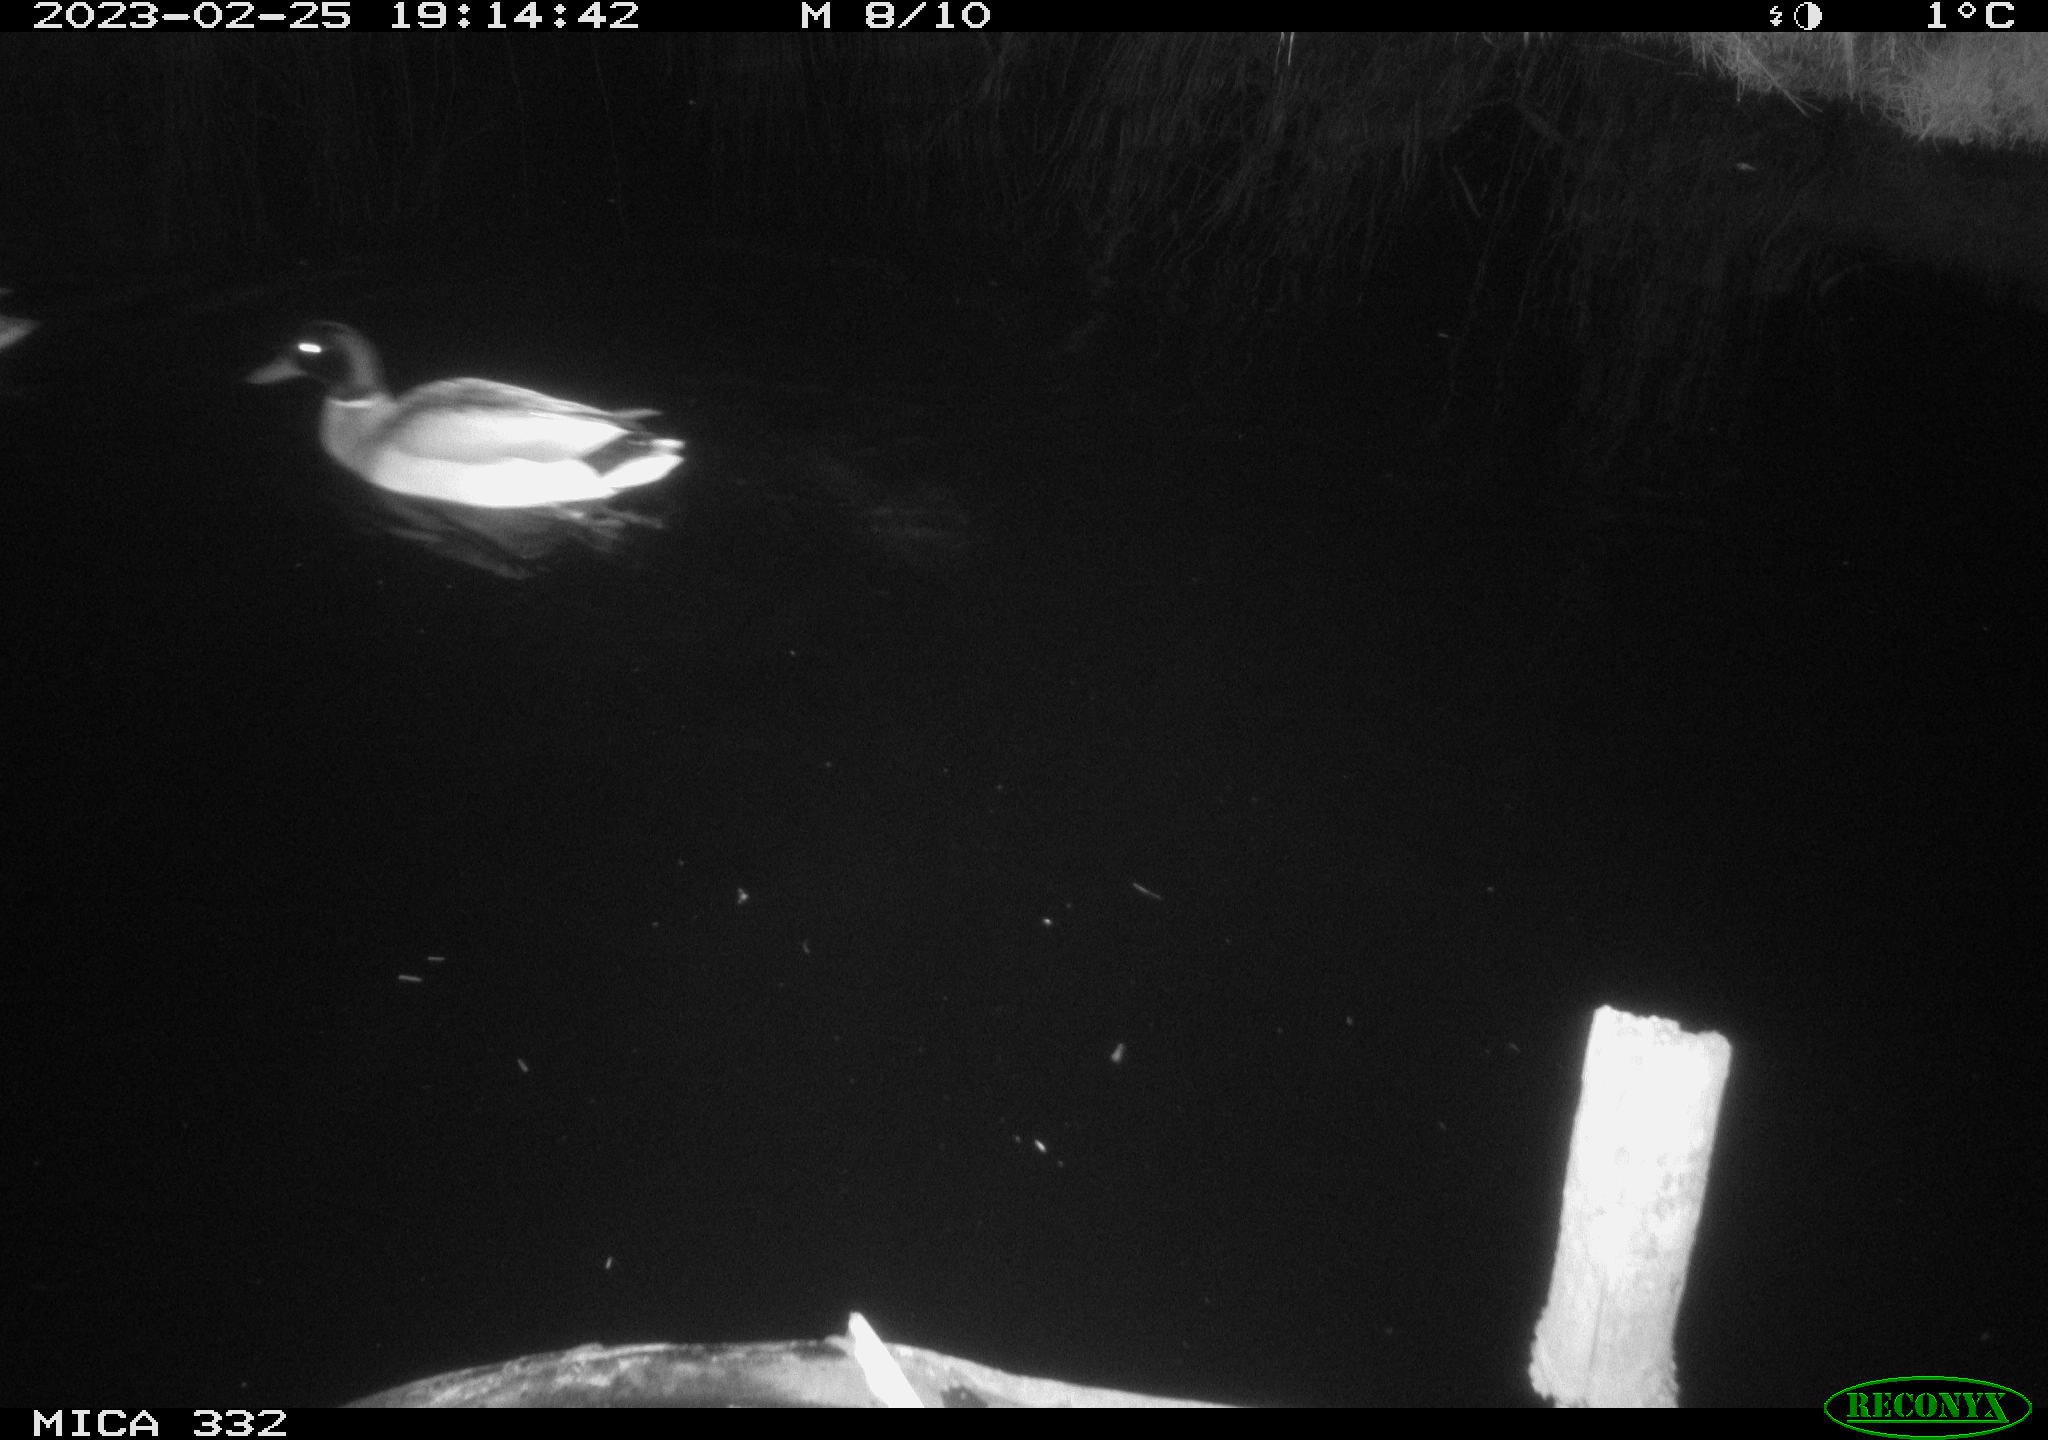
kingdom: Animalia
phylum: Chordata
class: Aves
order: Anseriformes
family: Anatidae
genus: Anas
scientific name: Anas
